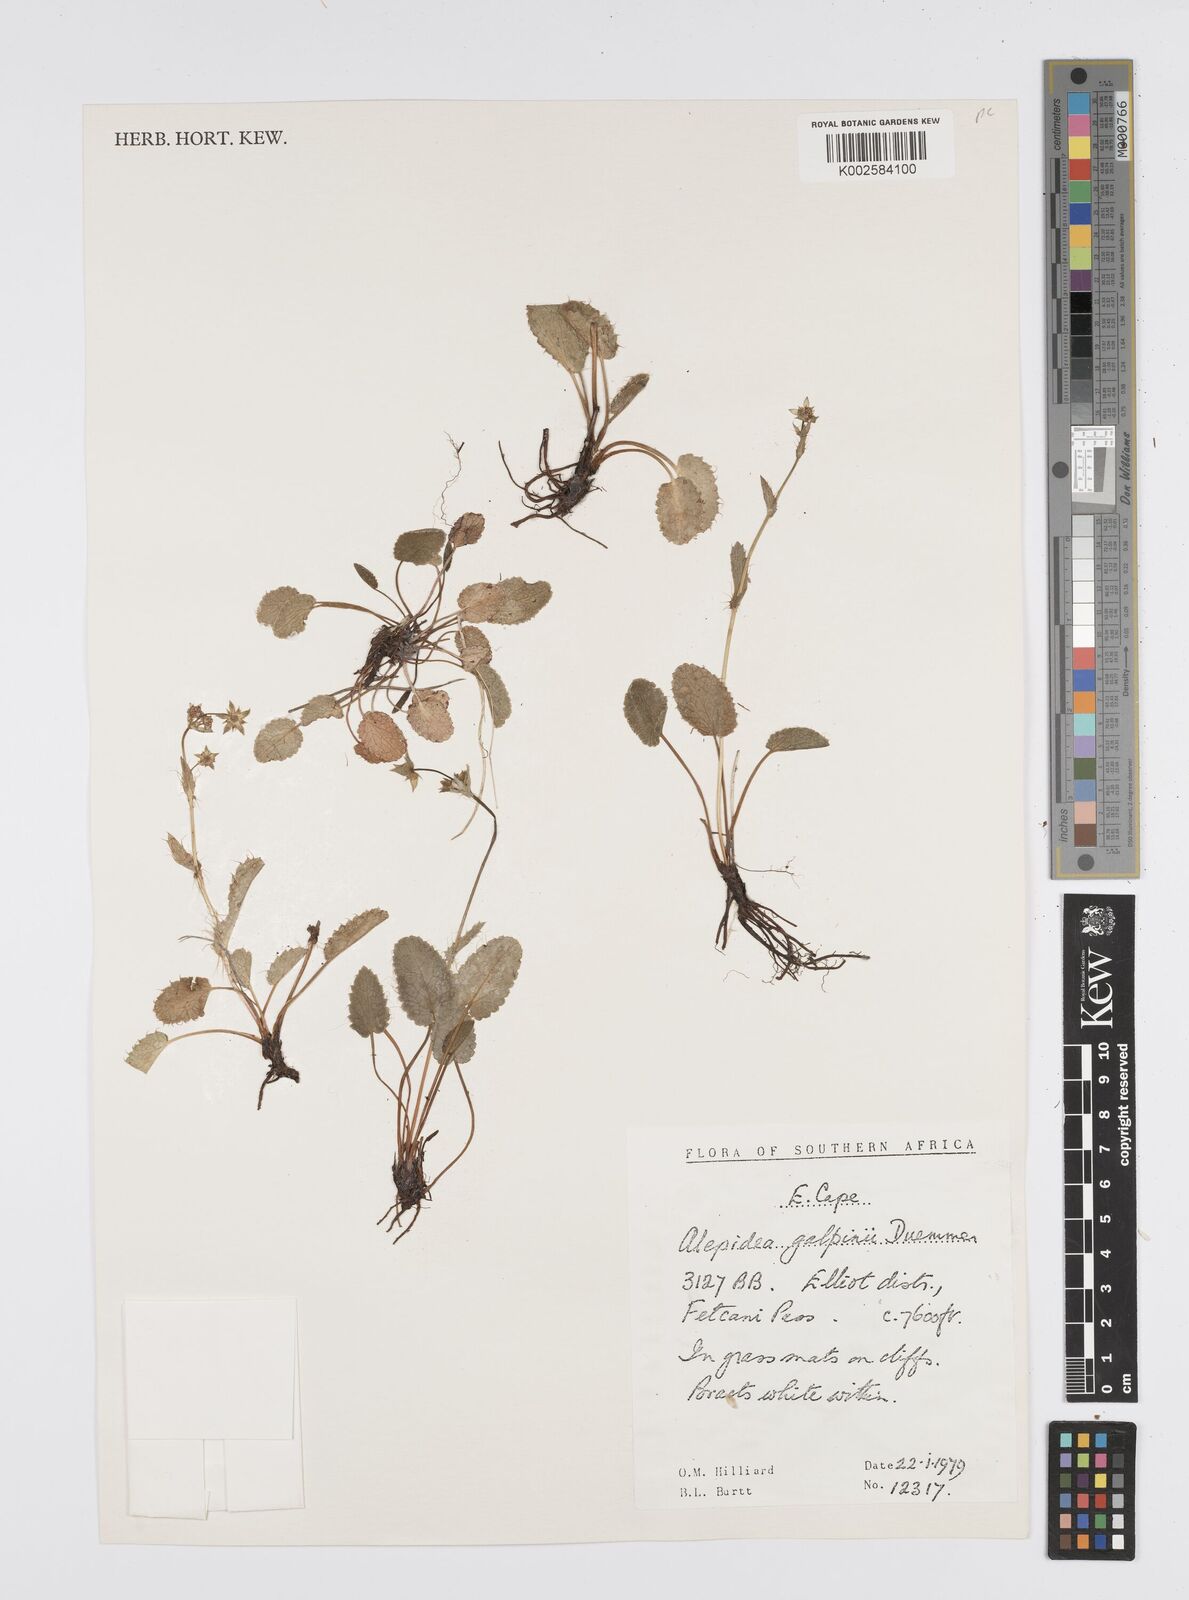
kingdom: Plantae
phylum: Tracheophyta
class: Magnoliopsida
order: Apiales
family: Apiaceae
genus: Alepidea
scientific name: Alepidea galpinii
